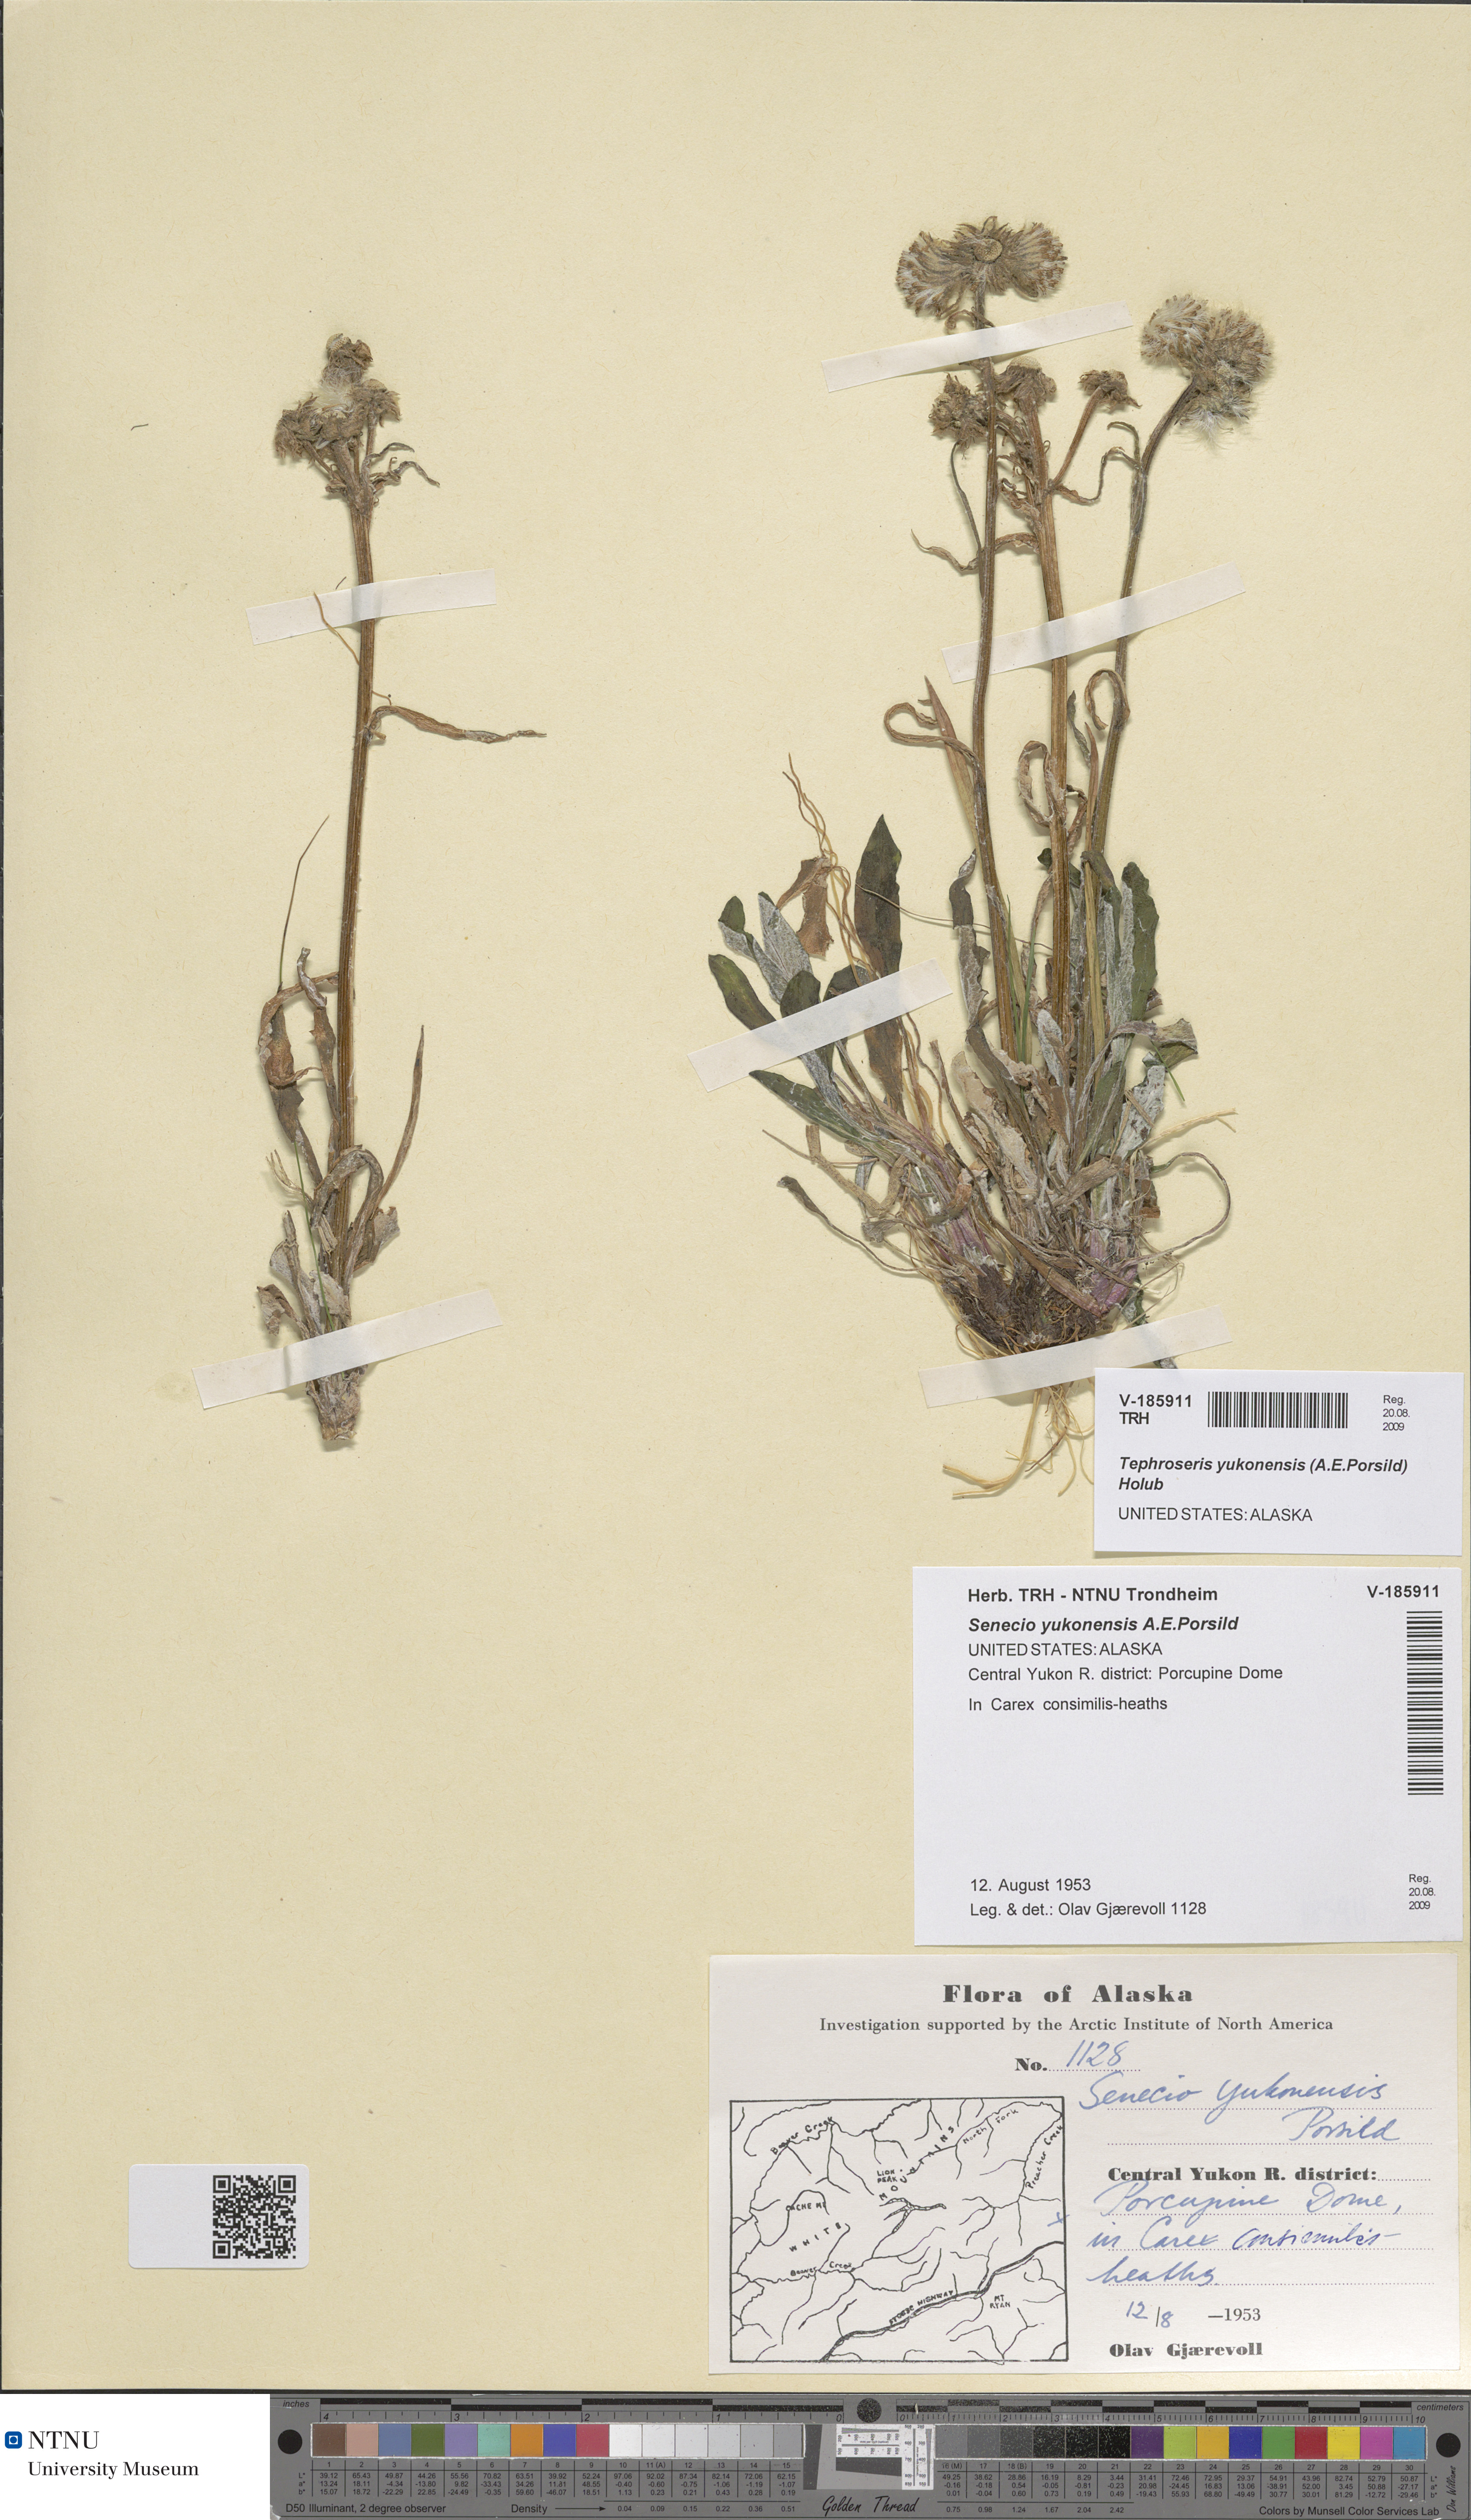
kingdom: Plantae
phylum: Tracheophyta
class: Magnoliopsida
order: Asterales
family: Asteraceae
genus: Tephroseris
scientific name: Tephroseris yukonensis
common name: Yukon groundsel
